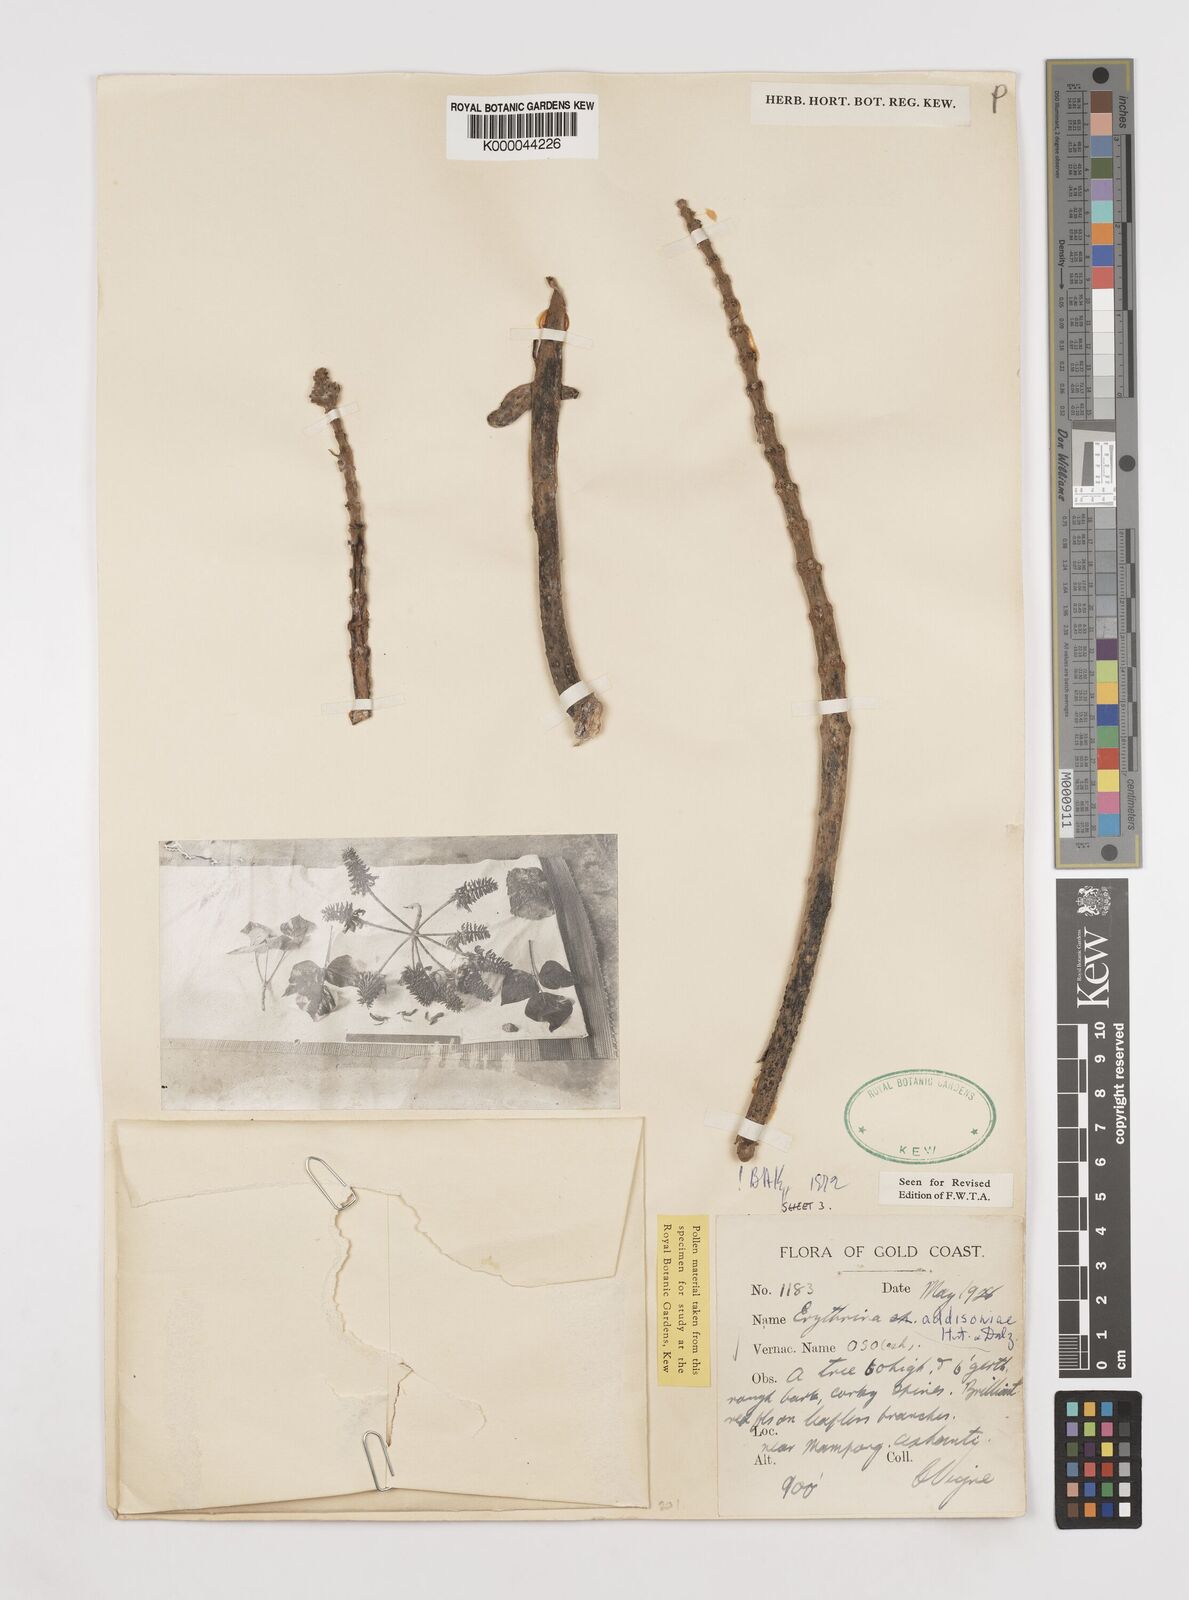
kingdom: Plantae
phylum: Tracheophyta
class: Magnoliopsida
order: Fabales
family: Fabaceae
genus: Erythrina
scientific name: Erythrina addisoniae
